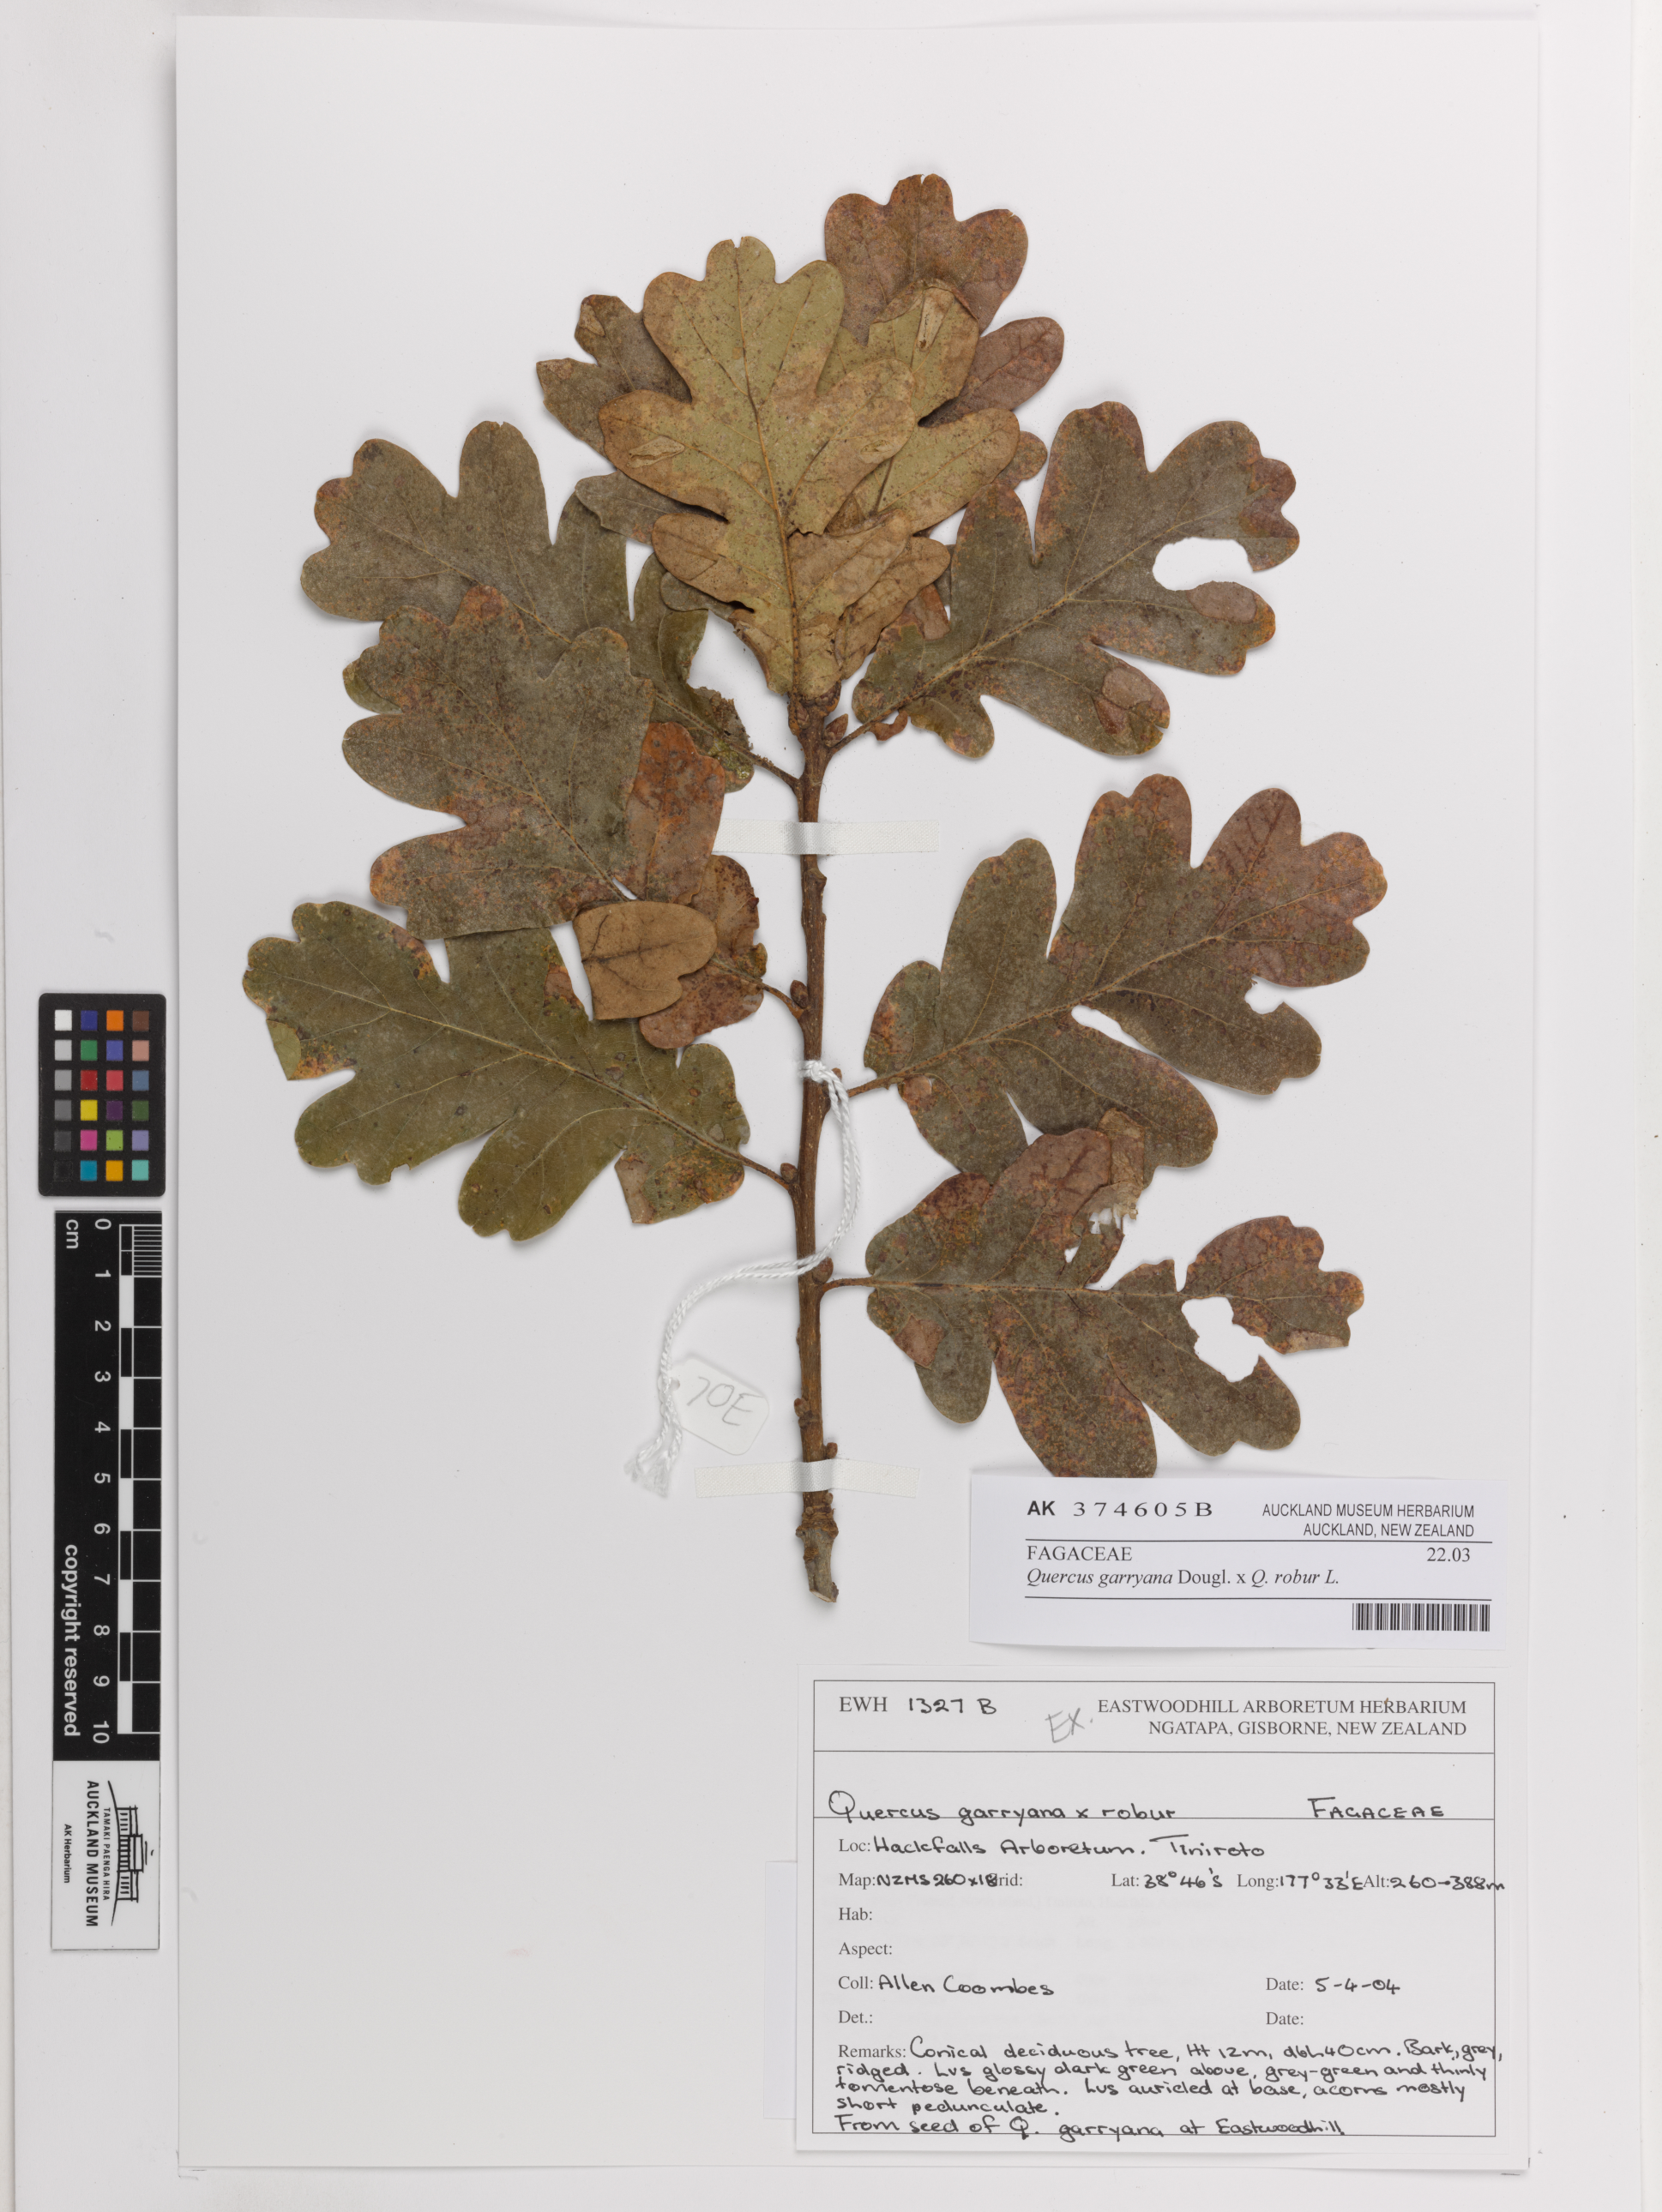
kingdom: Plantae
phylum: Tracheophyta
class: Magnoliopsida
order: Fagales
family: Fagaceae
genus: Quercus
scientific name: Quercus
